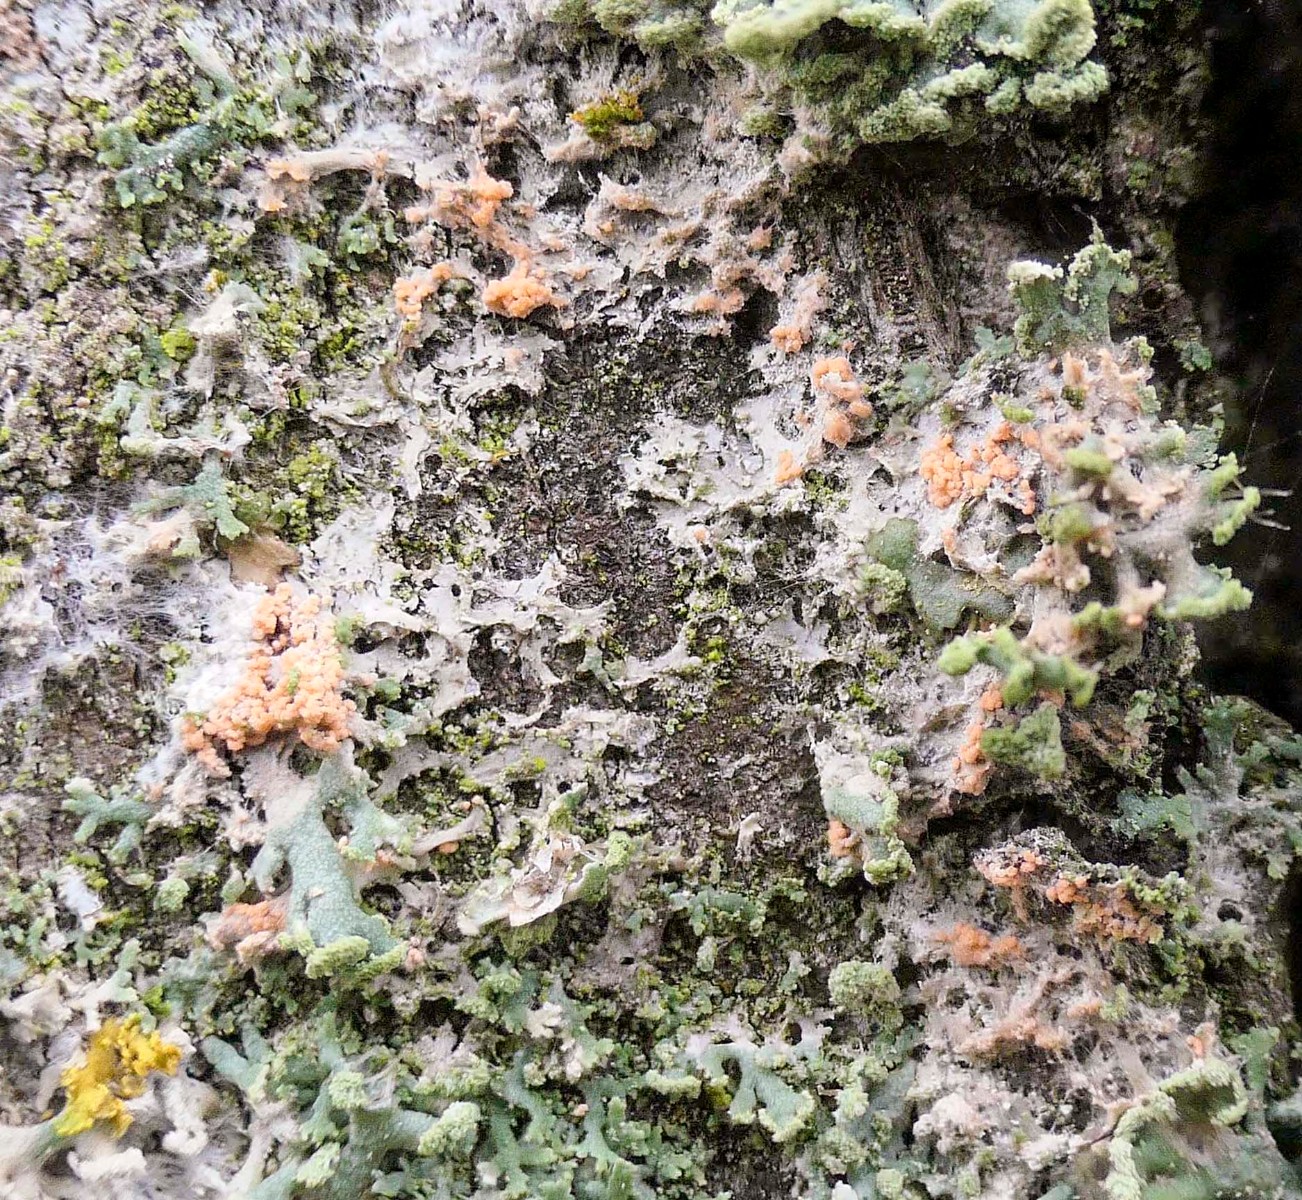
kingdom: Fungi
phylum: Basidiomycota
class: Agaricomycetes
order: Corticiales
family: Corticiaceae
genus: Erythricium
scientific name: Erythricium aurantiacum
